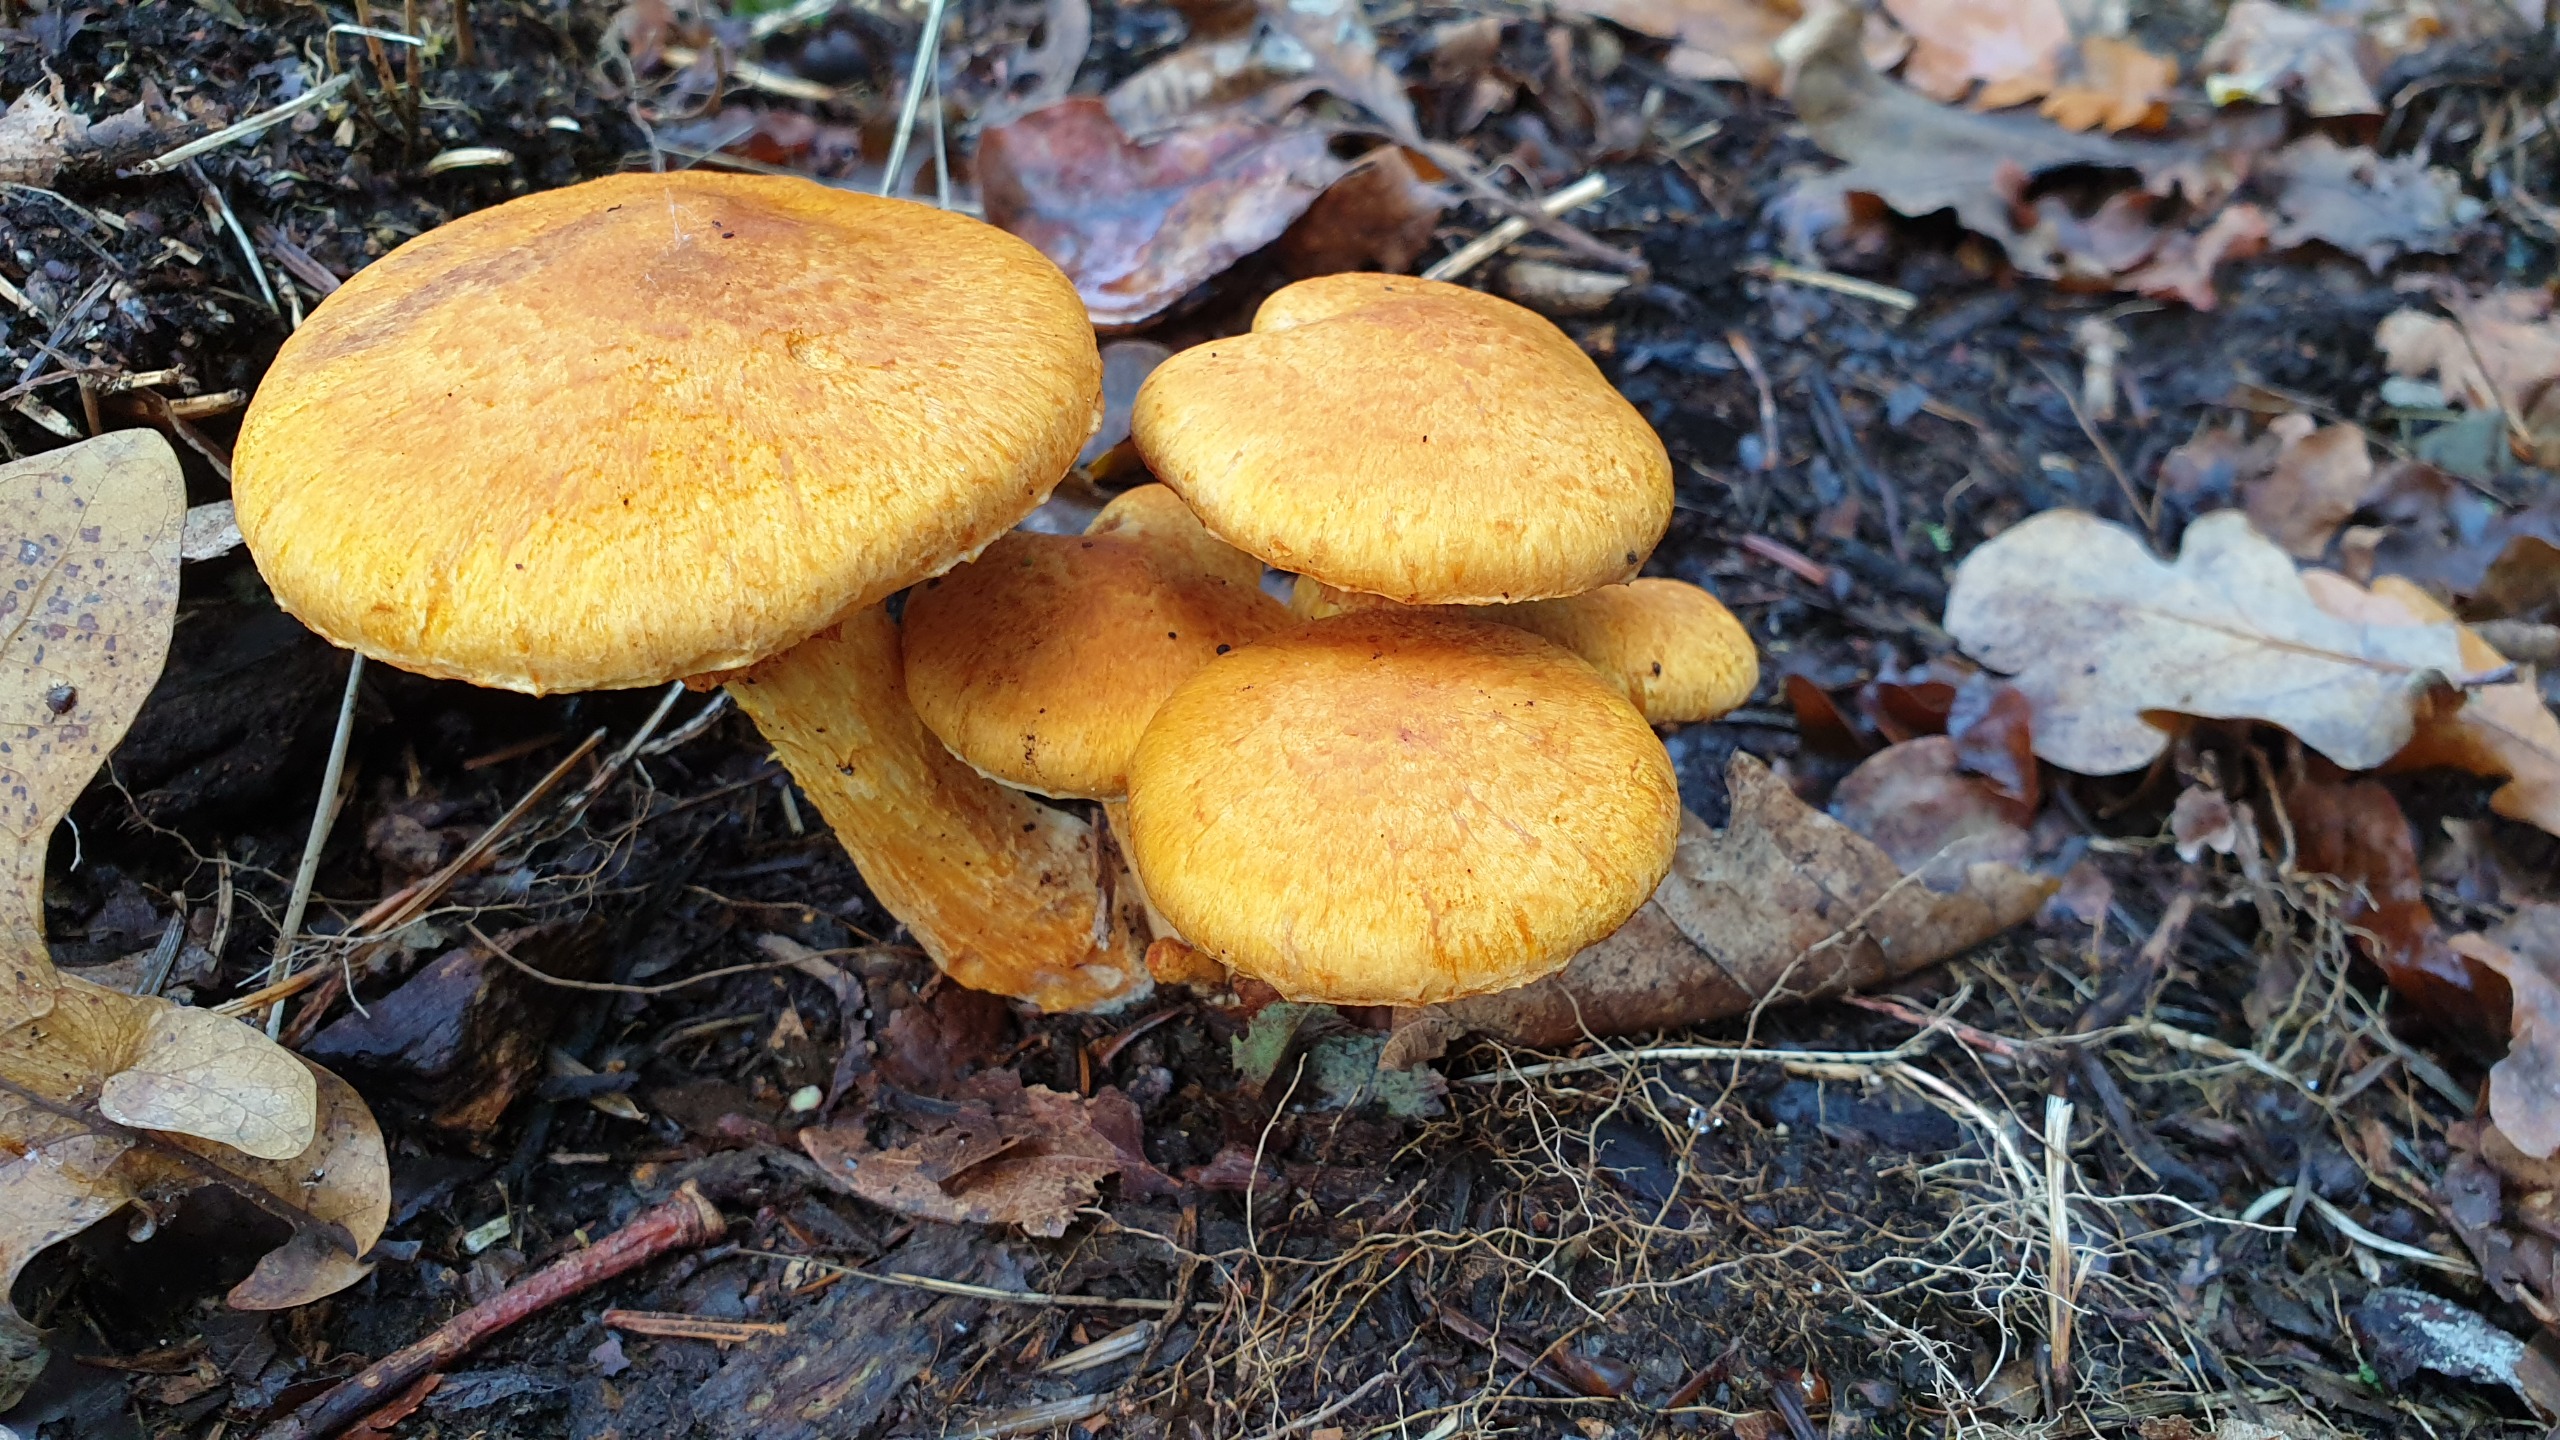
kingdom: Fungi
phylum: Basidiomycota
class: Agaricomycetes
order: Agaricales
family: Hymenogastraceae
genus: Gymnopilus
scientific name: Gymnopilus spectabilis
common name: Fibret flammehat
